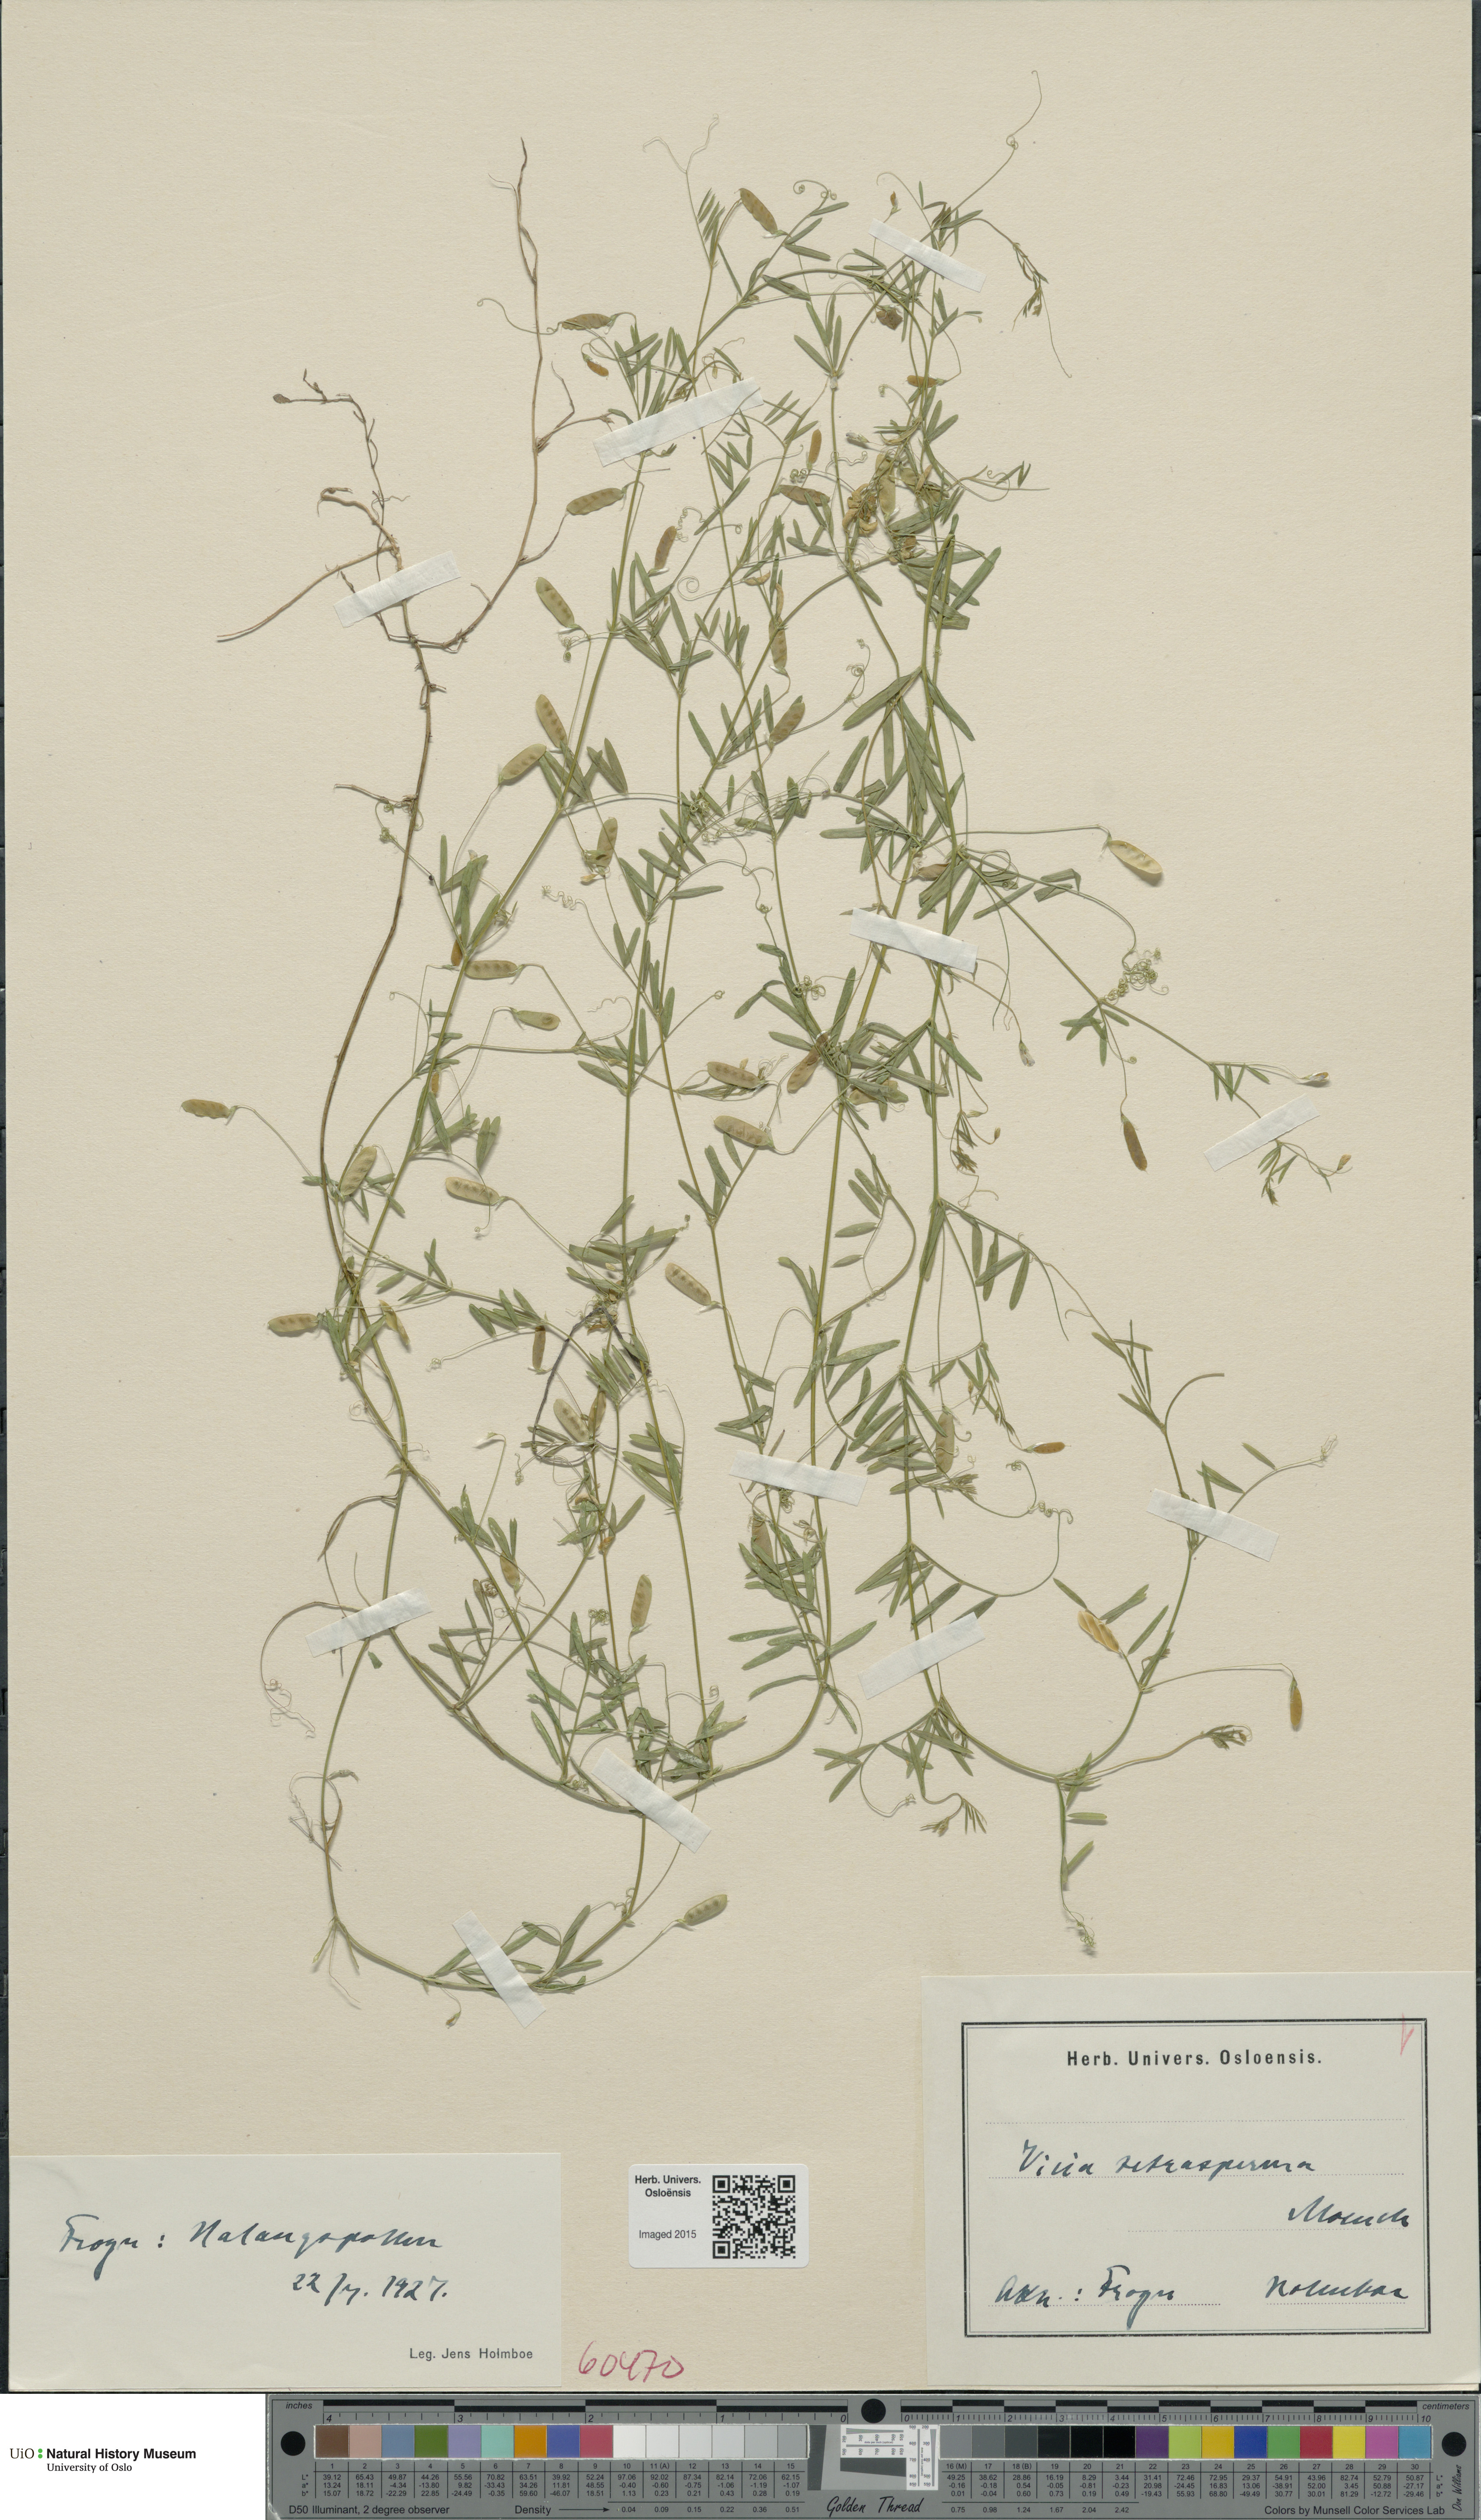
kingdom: Plantae
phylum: Tracheophyta
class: Magnoliopsida
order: Fabales
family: Fabaceae
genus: Vicia
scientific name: Vicia tetrasperma
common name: Smooth tare
